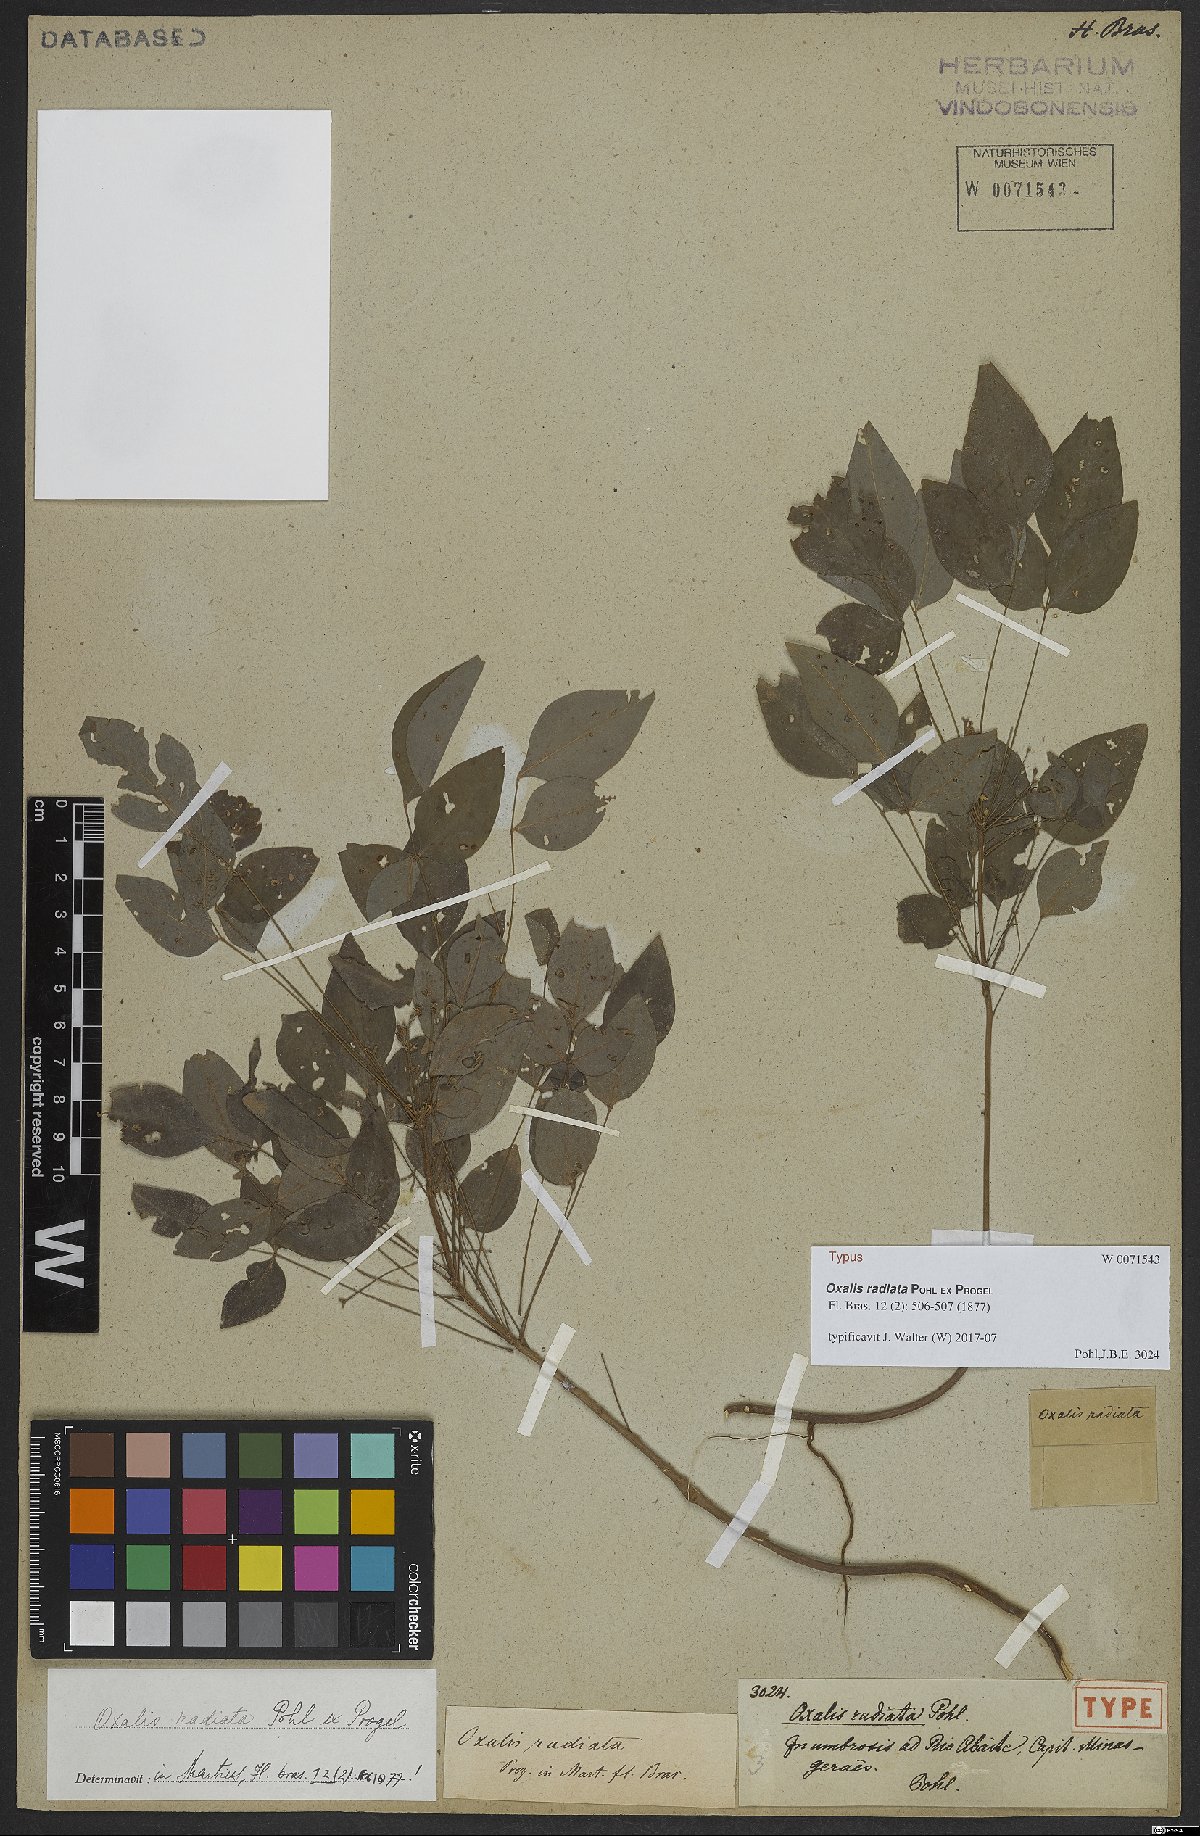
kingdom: Plantae
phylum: Tracheophyta
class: Magnoliopsida
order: Oxalidales
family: Oxalidaceae
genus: Oxalis
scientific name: Oxalis conorrhiza
